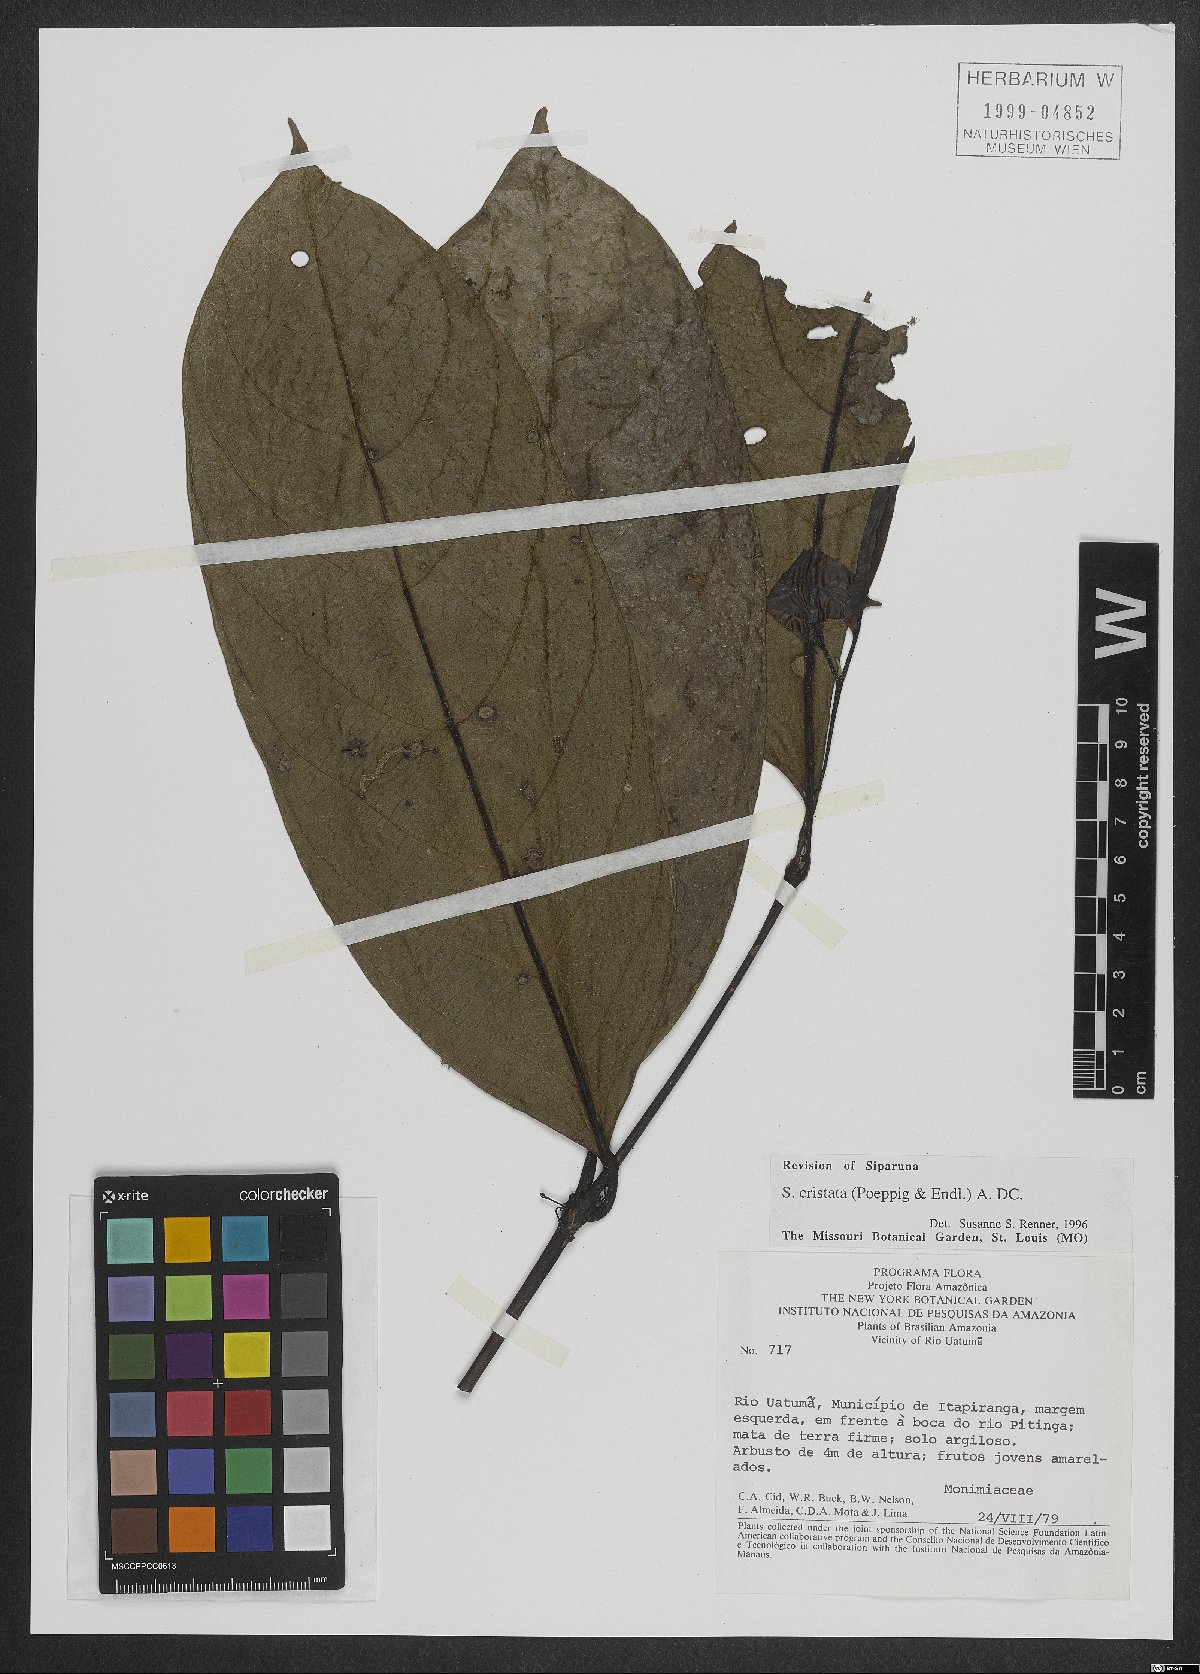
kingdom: Plantae
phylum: Tracheophyta
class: Magnoliopsida
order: Laurales
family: Siparunaceae
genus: Siparuna
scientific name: Siparuna cristata
